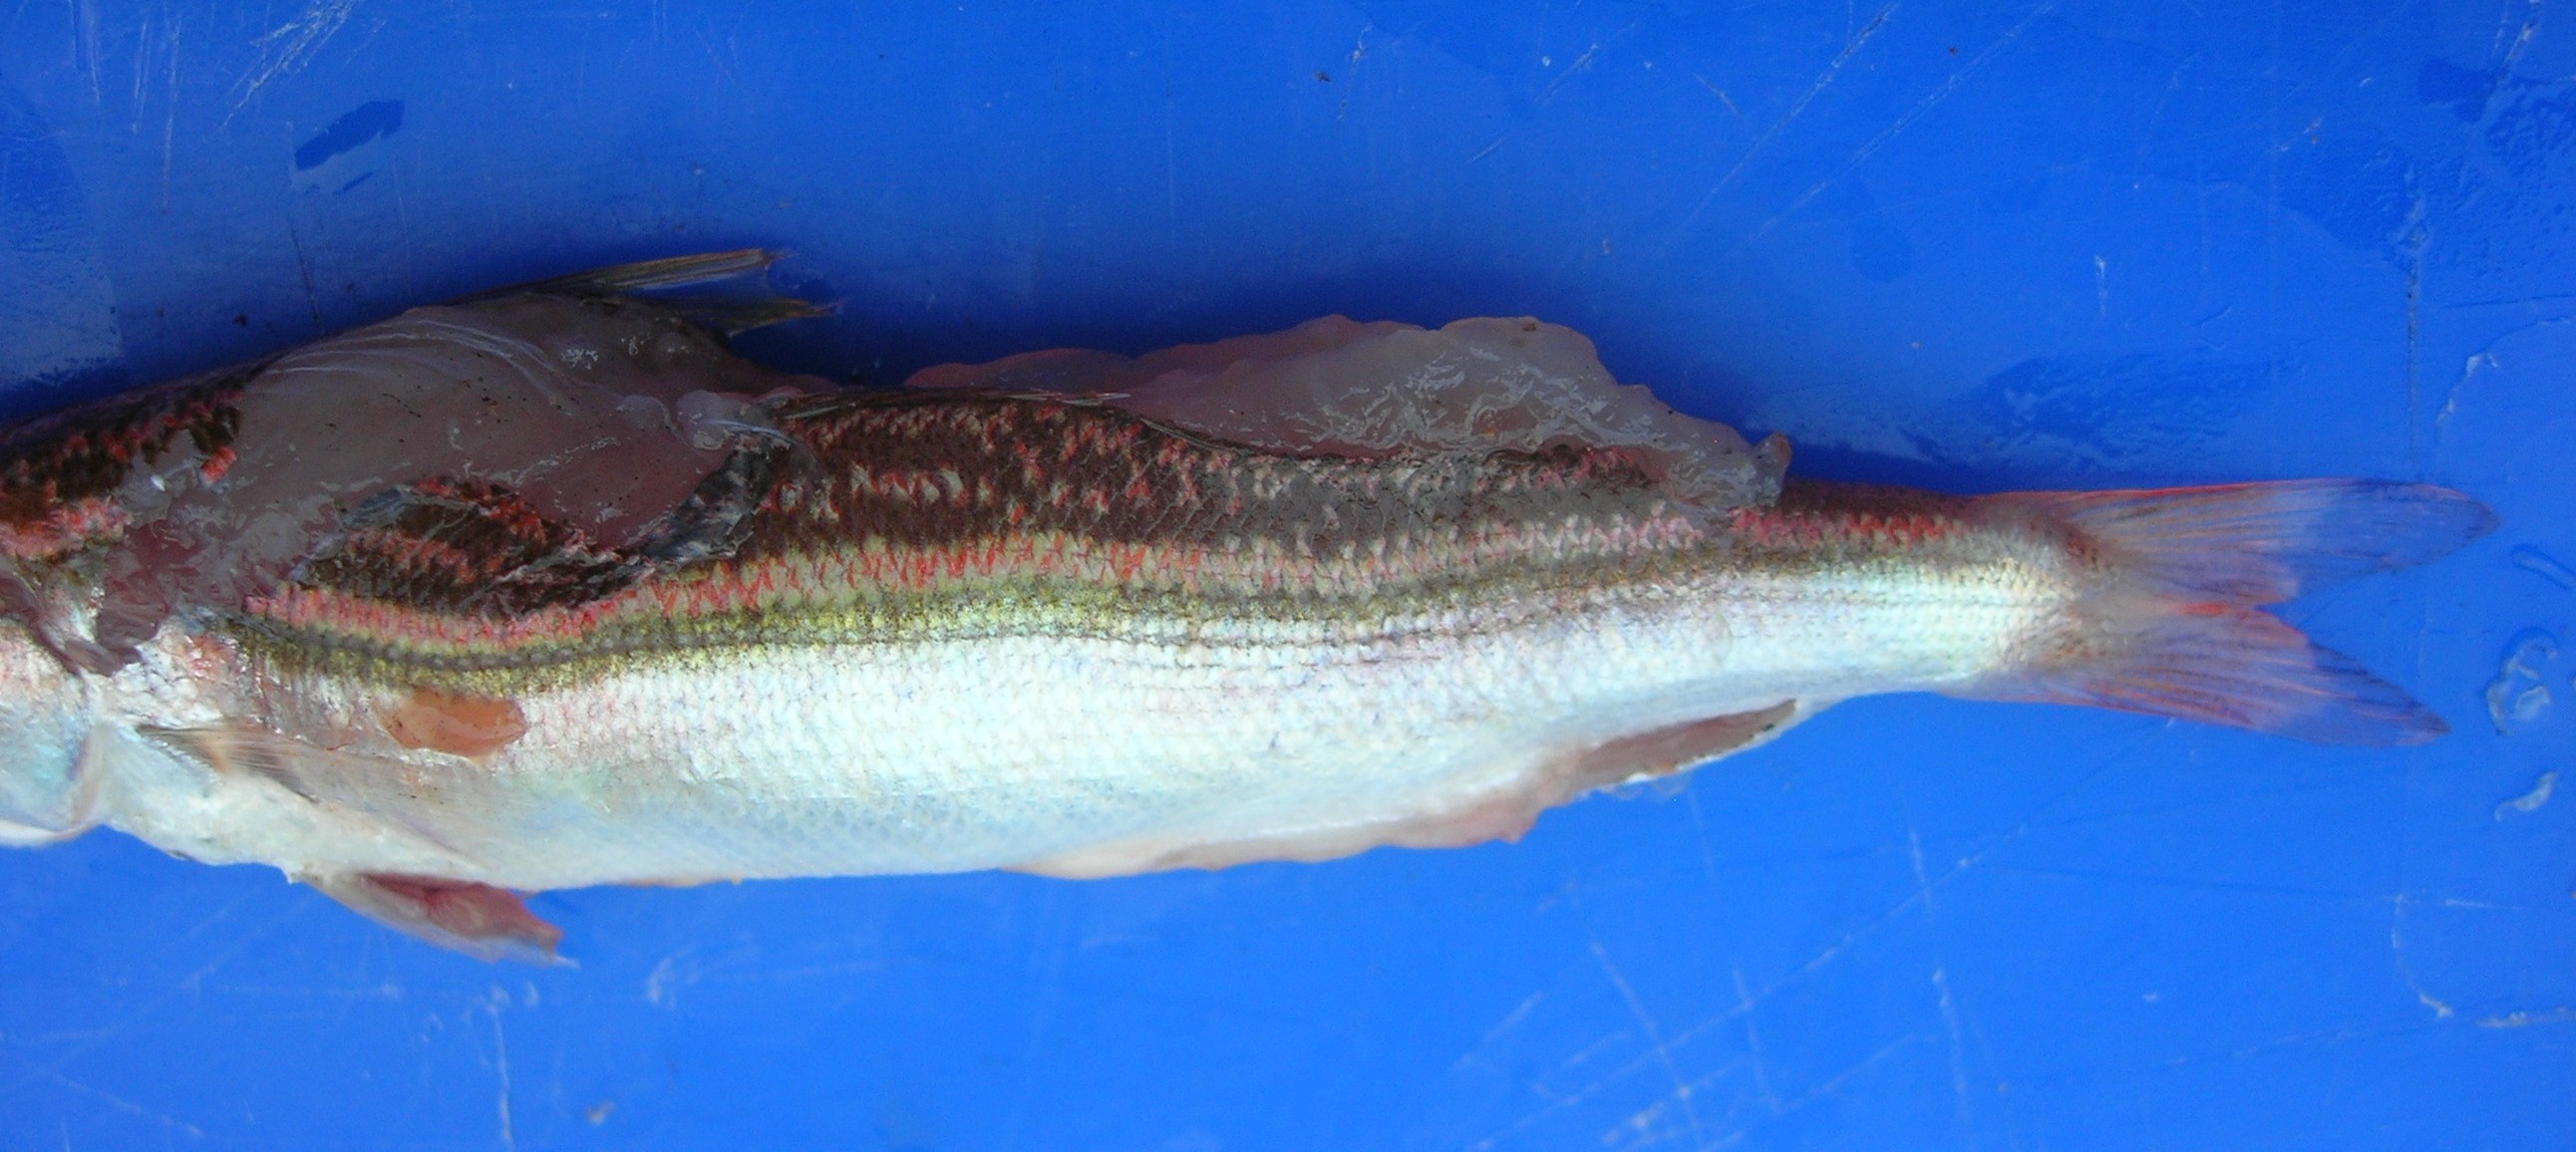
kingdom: Animalia
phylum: Chordata
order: Perciformes
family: Caesionidae
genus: Dipterygonotus
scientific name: Dipterygonotus balteatus
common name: Mottled fusilier
